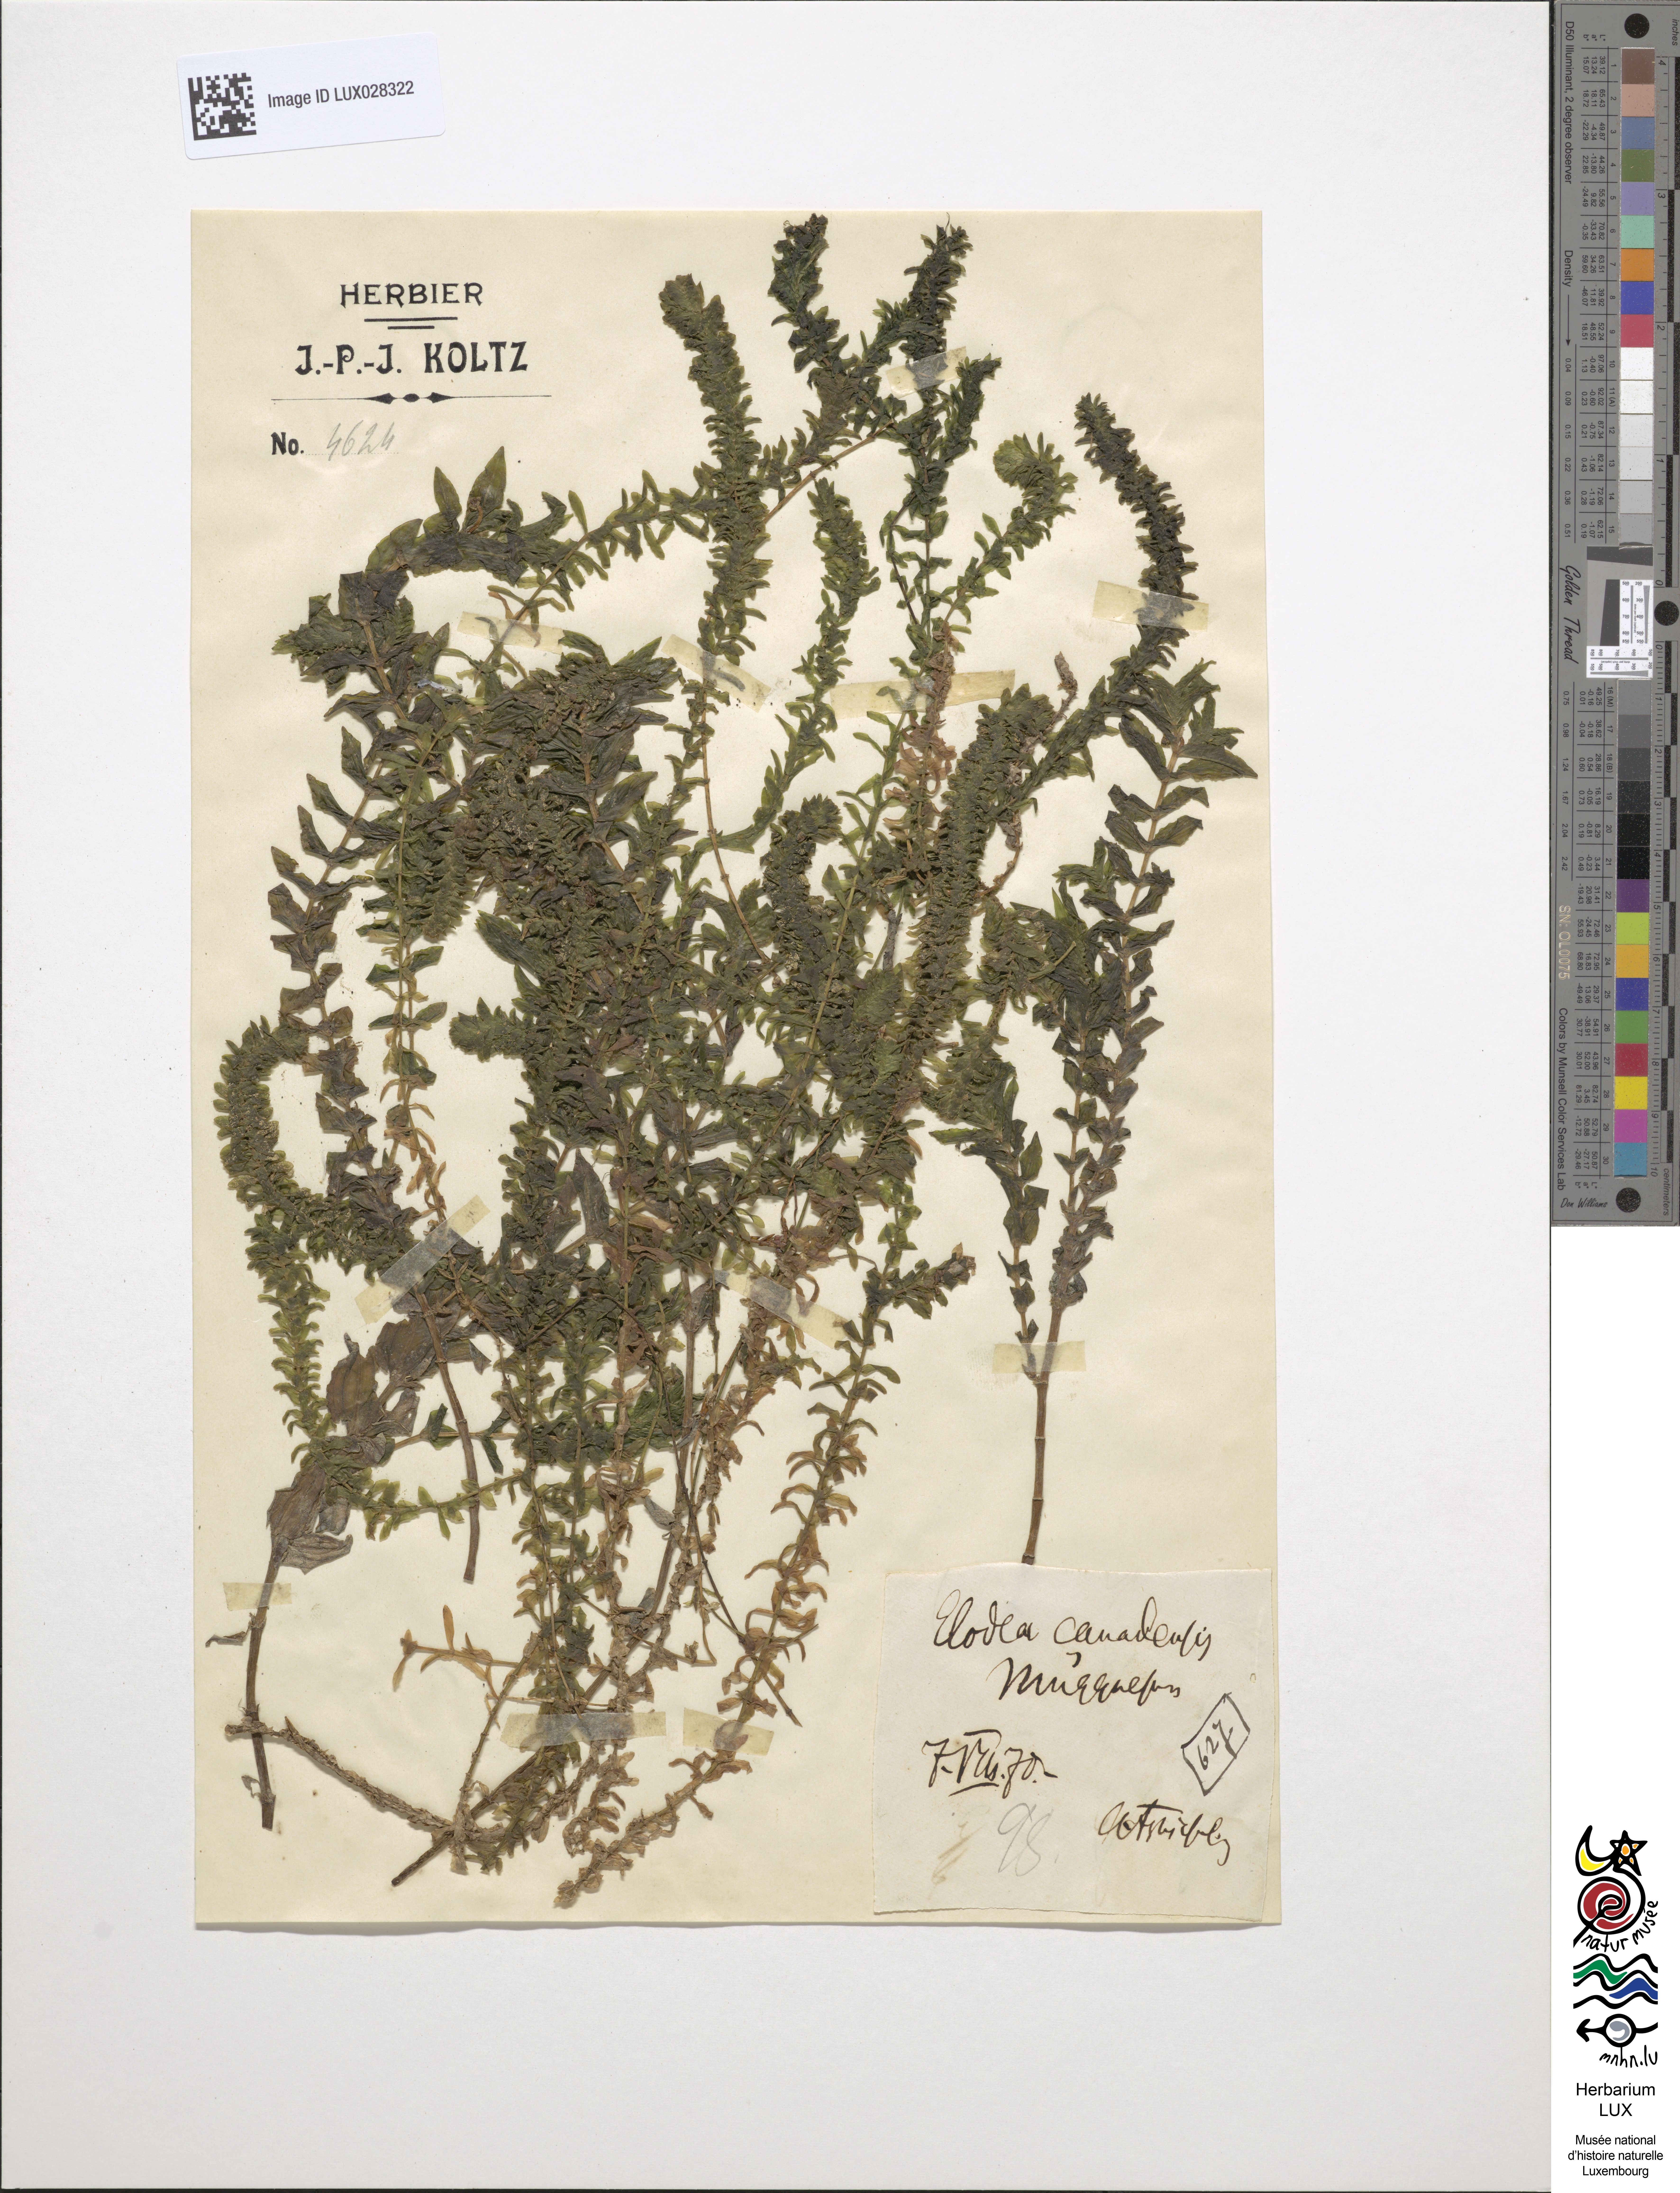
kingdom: Plantae
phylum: Tracheophyta
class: Liliopsida
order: Alismatales
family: Alismataceae
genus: Alisma
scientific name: Alisma
